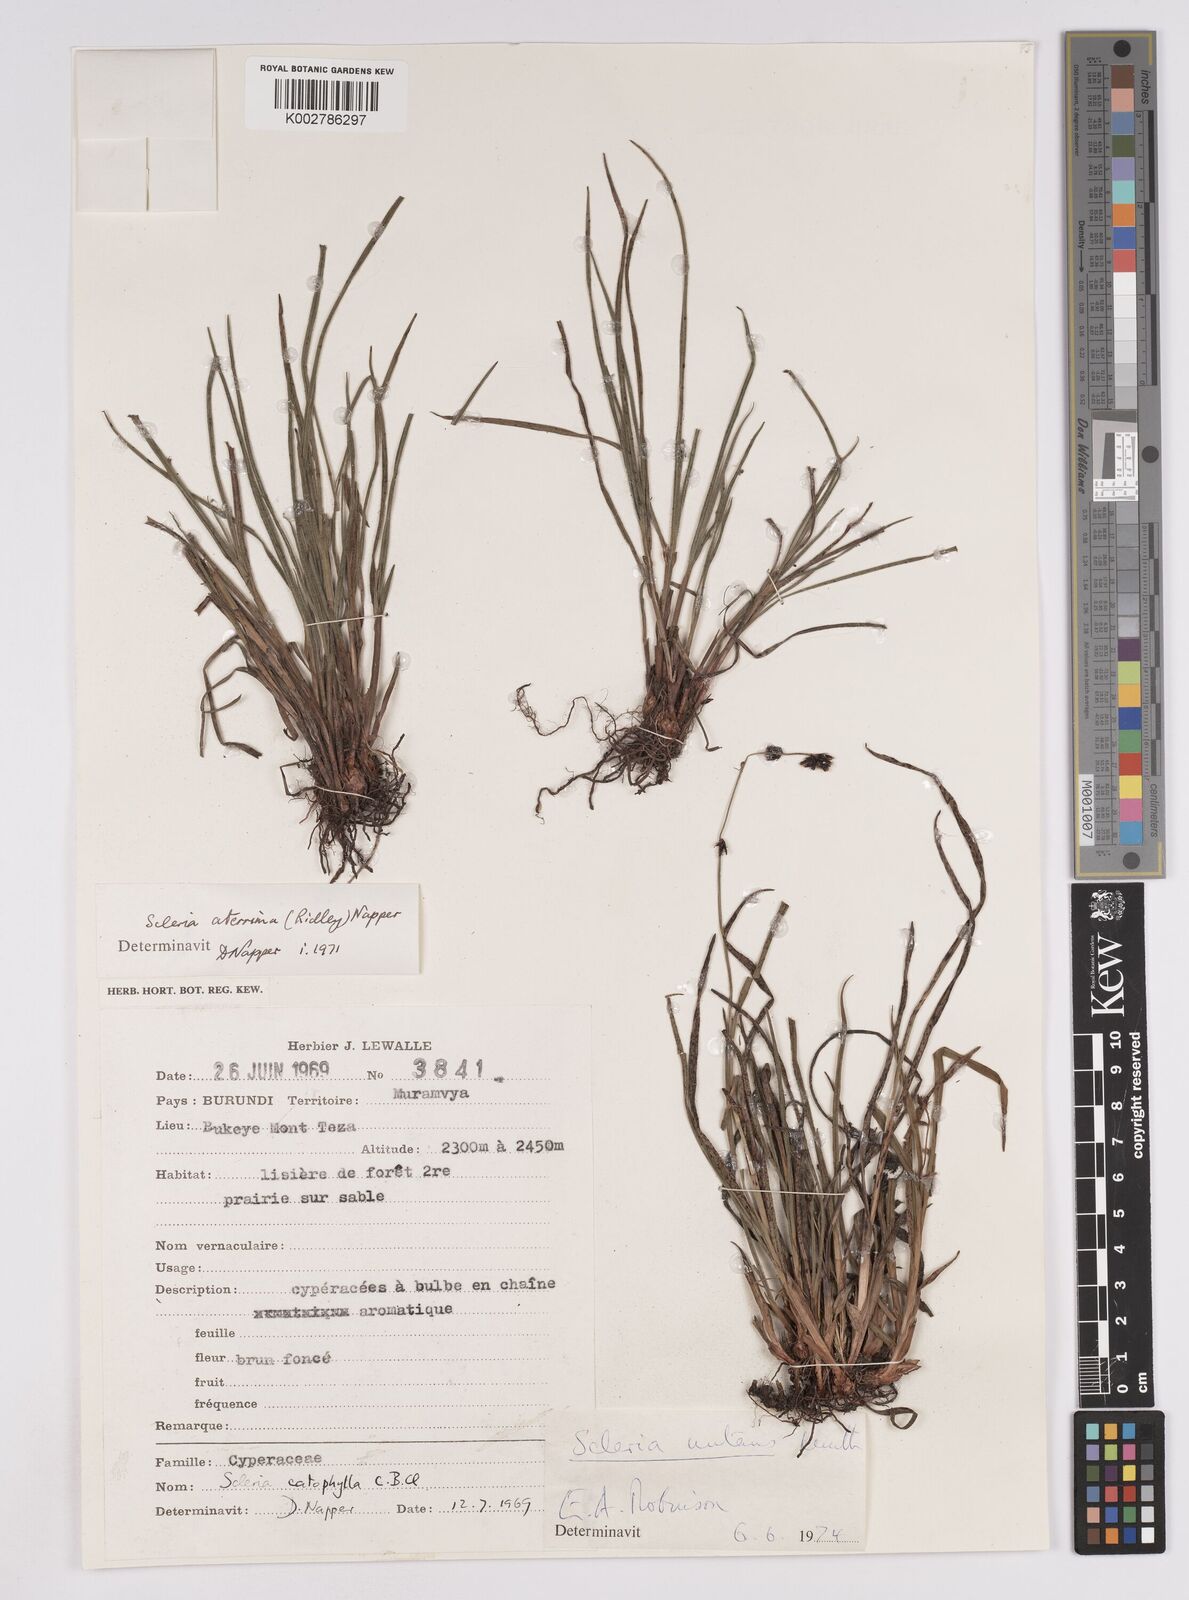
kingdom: Plantae
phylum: Tracheophyta
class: Liliopsida
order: Poales
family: Cyperaceae
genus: Scleria
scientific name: Scleria brownii
